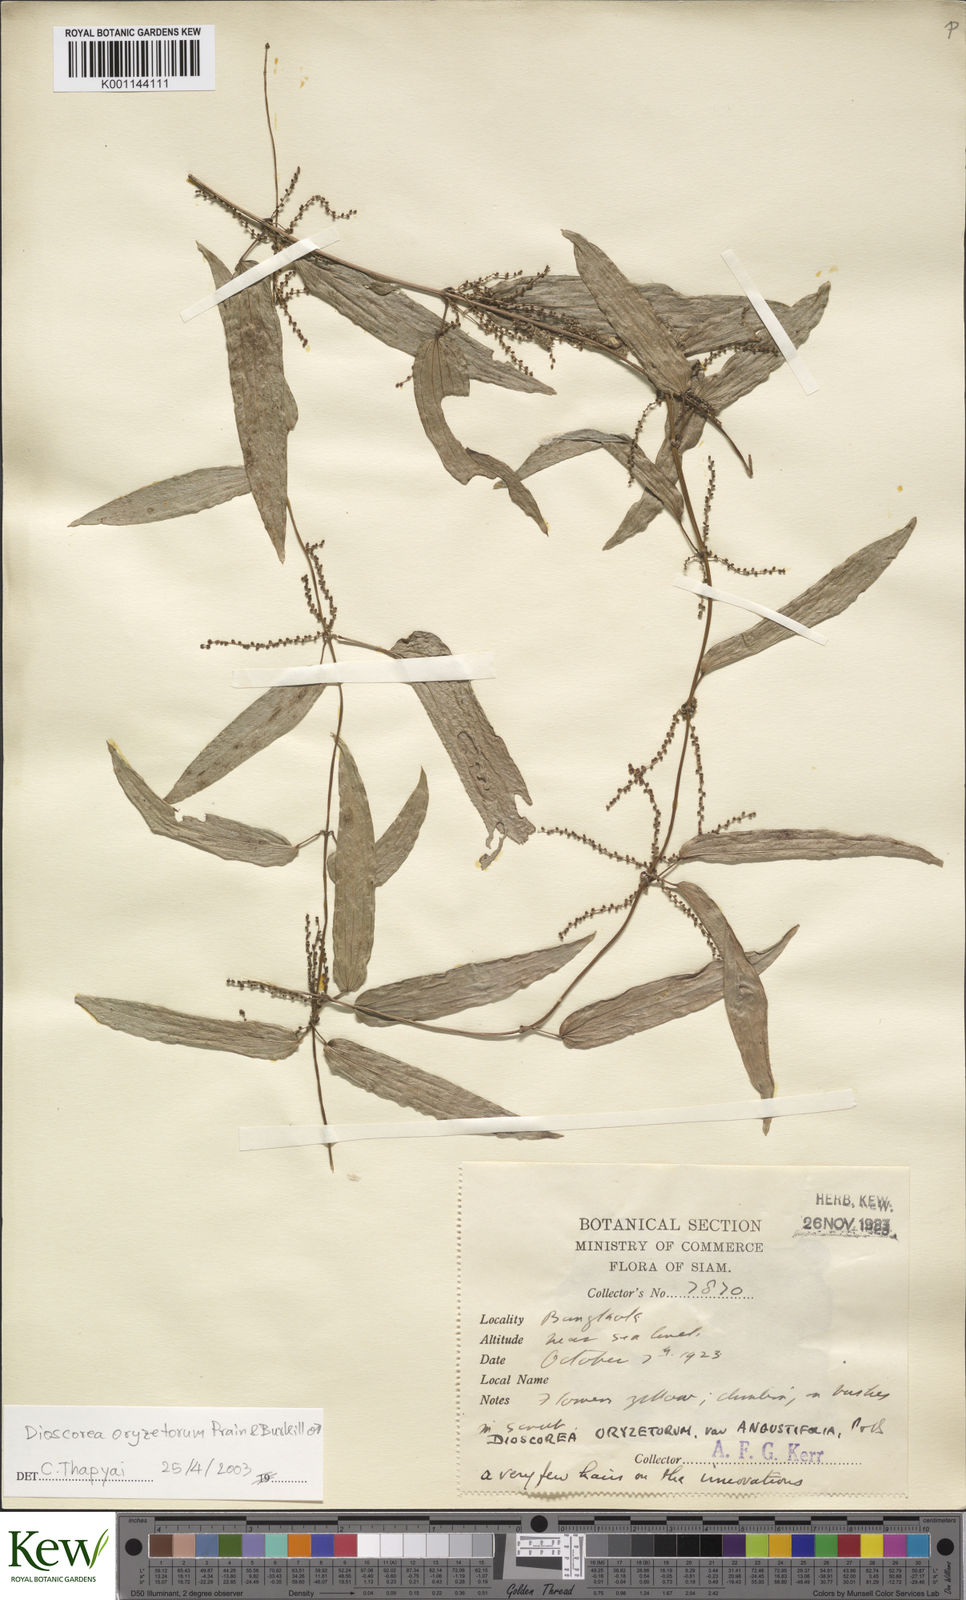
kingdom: Plantae
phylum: Tracheophyta
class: Liliopsida
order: Dioscoreales
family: Dioscoreaceae
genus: Dioscorea
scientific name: Dioscorea
